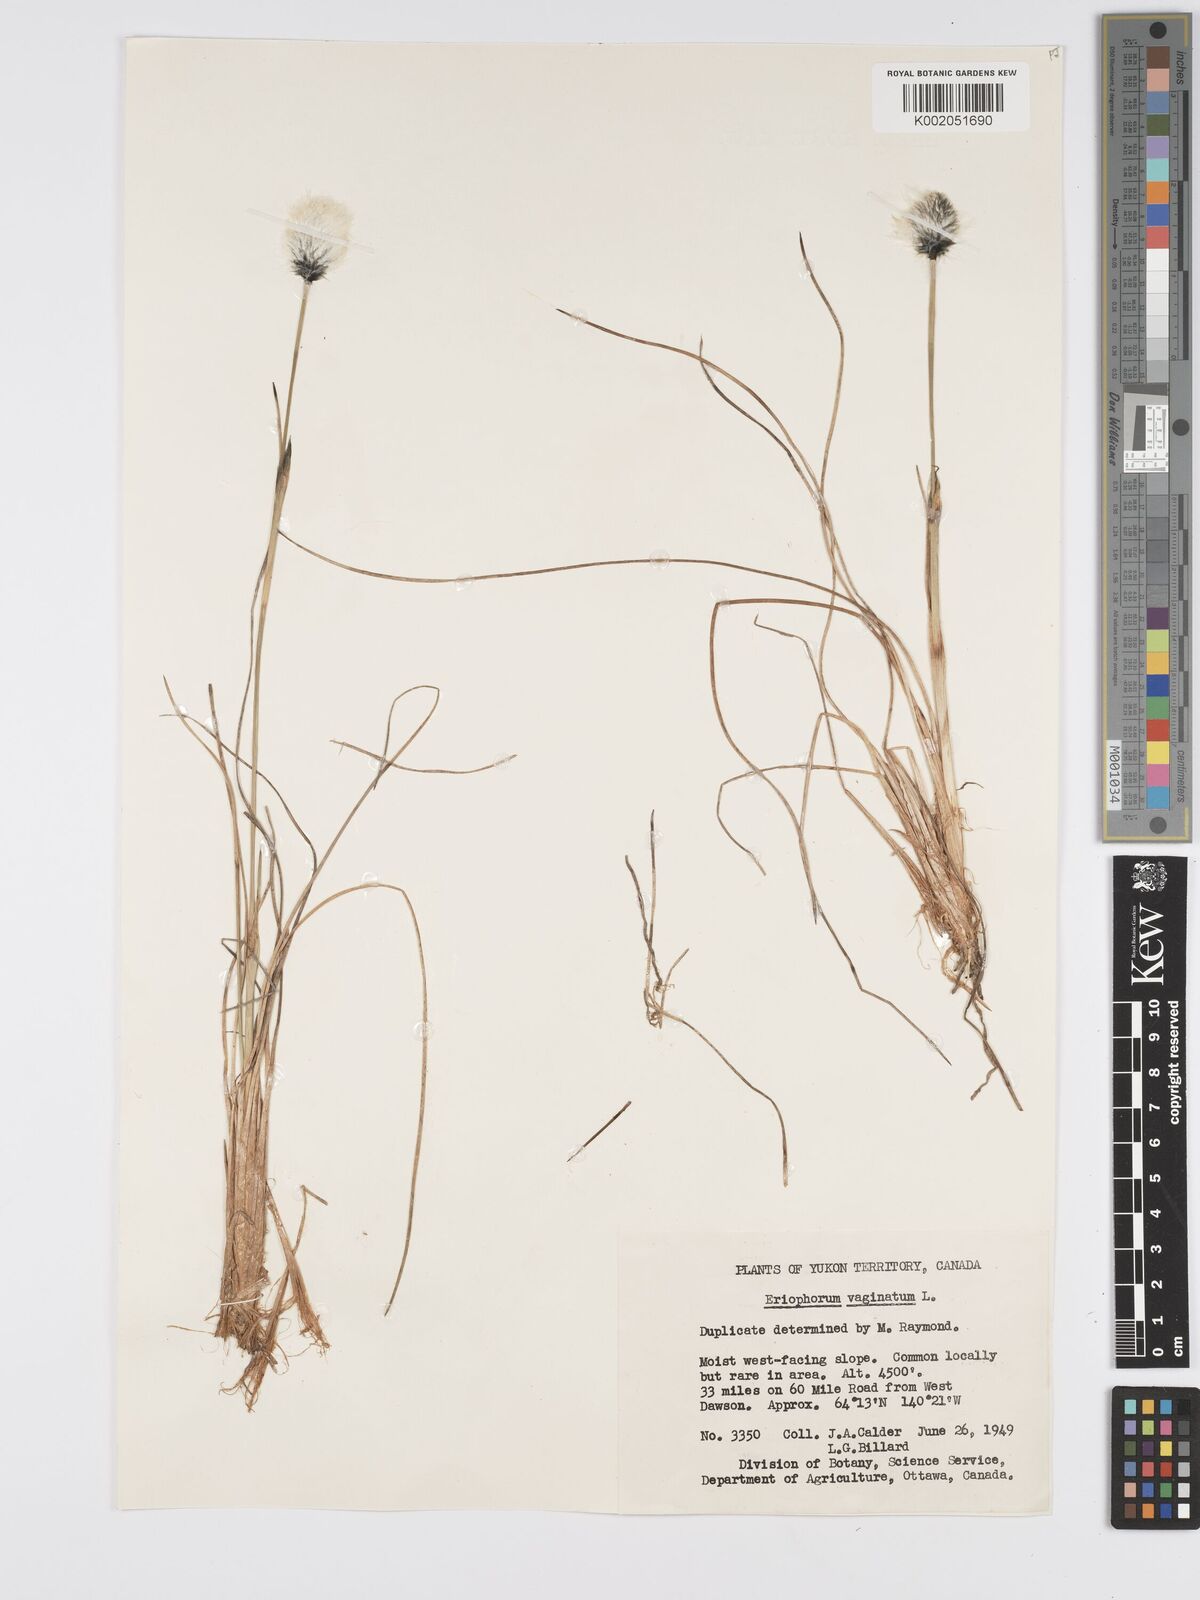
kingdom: Plantae
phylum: Tracheophyta
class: Liliopsida
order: Poales
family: Cyperaceae
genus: Eriophorum
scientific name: Eriophorum vaginatum
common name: Hare's-tail cottongrass
